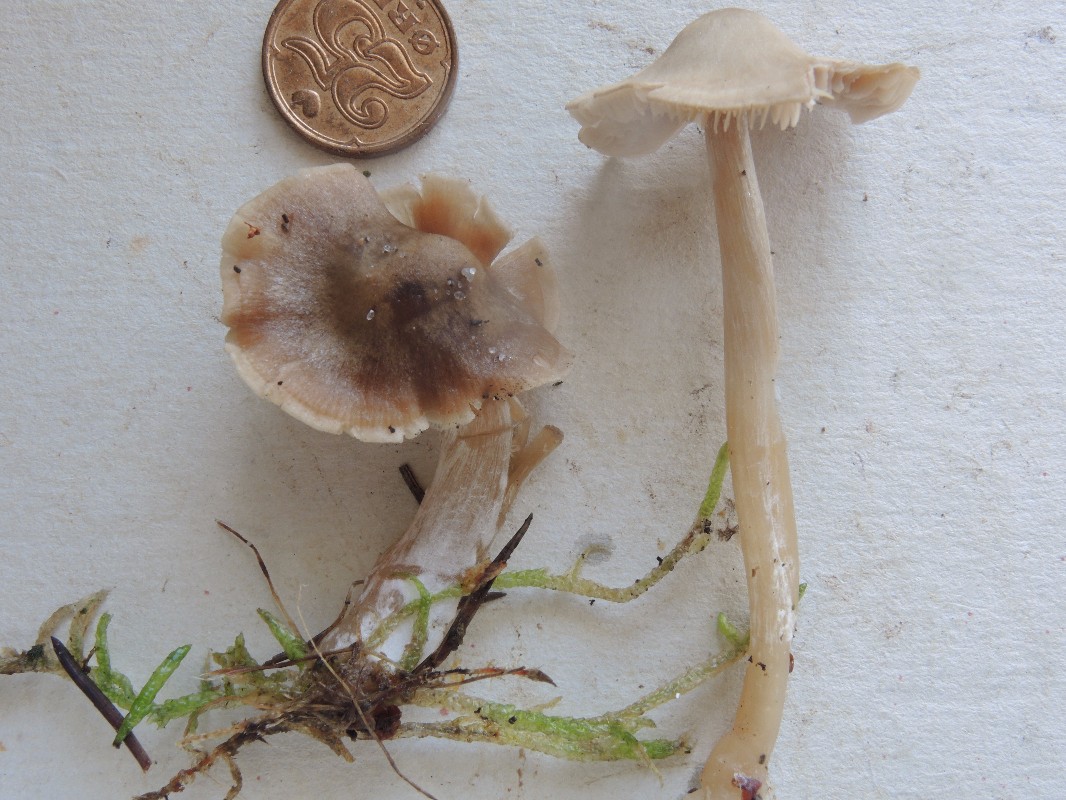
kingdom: Fungi
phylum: Basidiomycota
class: Agaricomycetes
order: Agaricales
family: Entolomataceae
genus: Entoloma
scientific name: Entoloma cetratum
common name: voks-rødblad
